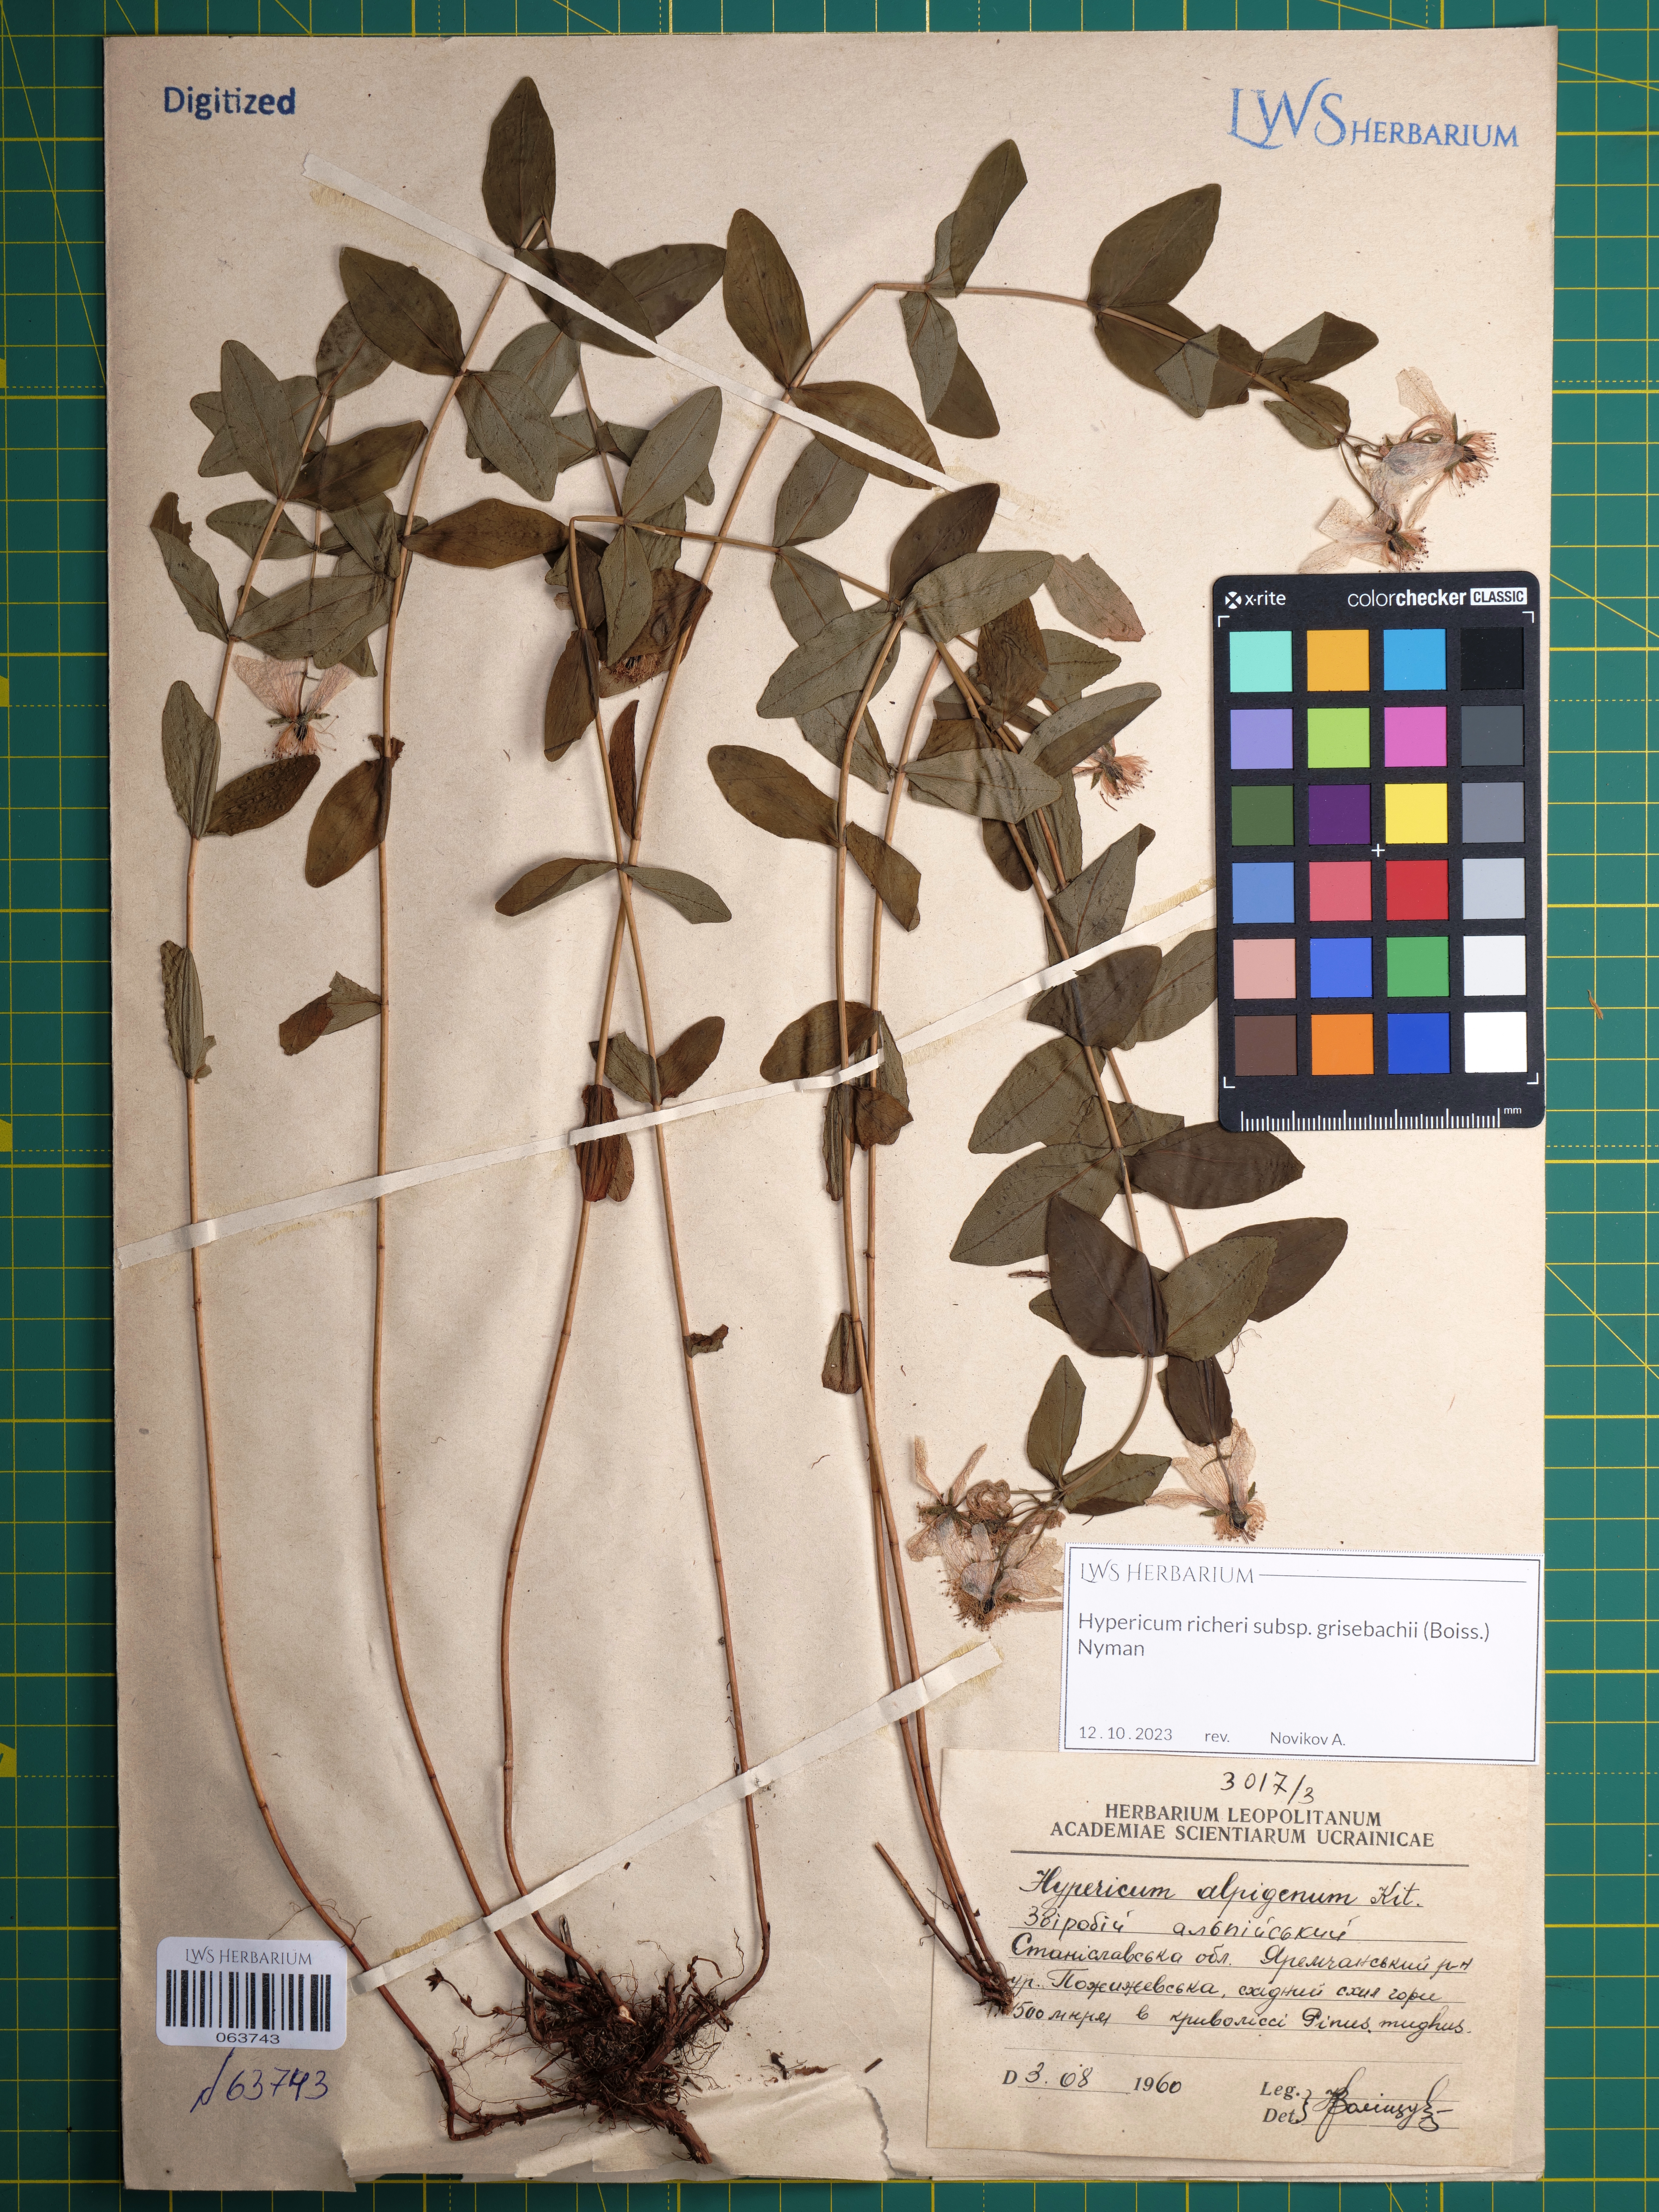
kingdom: Plantae
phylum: Tracheophyta
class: Magnoliopsida
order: Malpighiales
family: Hypericaceae
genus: Hypericum
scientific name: Hypericum richeri
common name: Alpine st john's-wort
